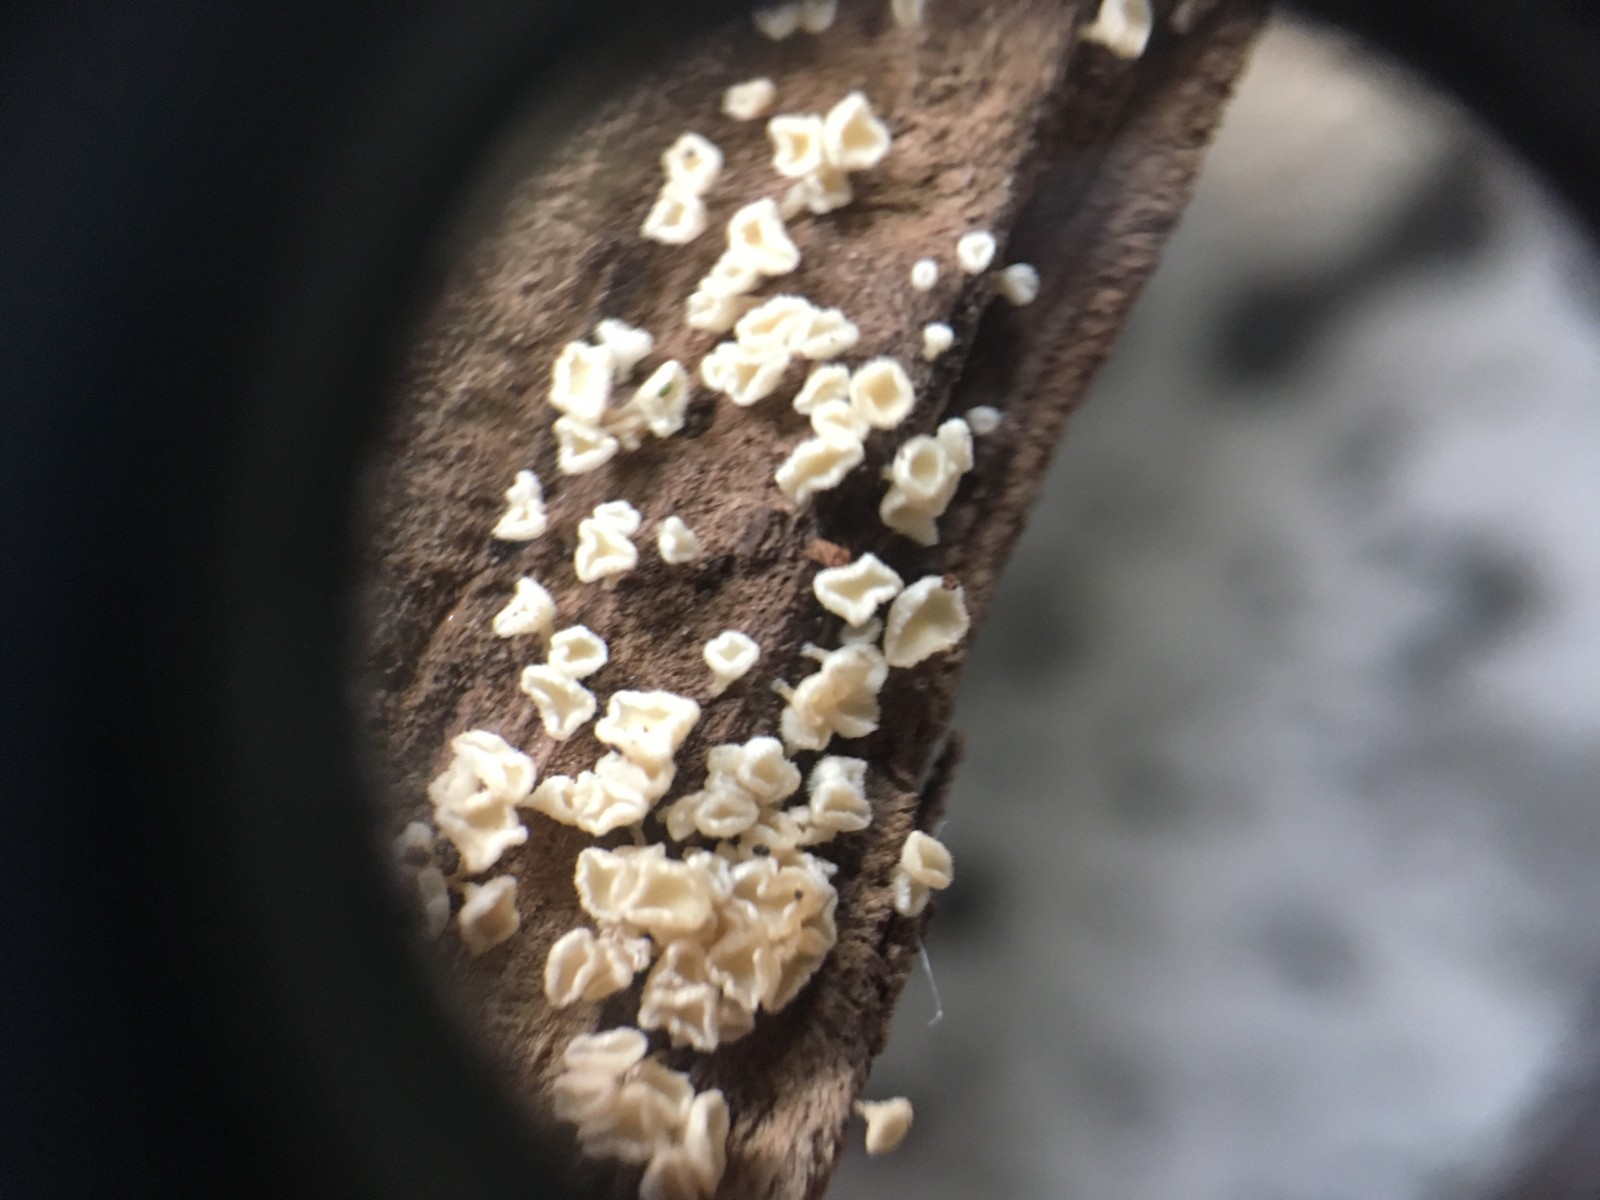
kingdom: Fungi
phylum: Ascomycota
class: Leotiomycetes
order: Helotiales
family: Lachnaceae
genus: Lachnum
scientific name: Lachnum
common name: frynseskive
